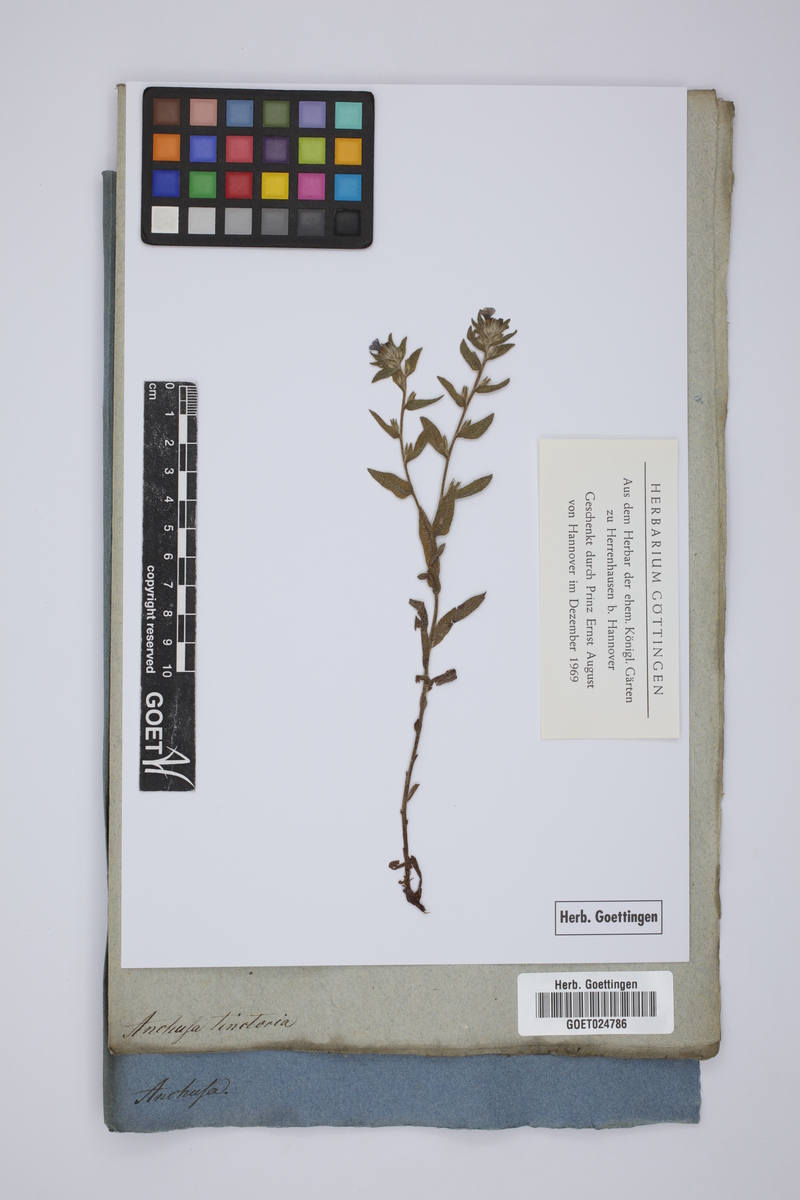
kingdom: Plantae
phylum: Tracheophyta
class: Magnoliopsida
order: Boraginales
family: Boraginaceae
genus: Alkanna
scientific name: Alkanna tinctoria
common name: Dyer's-alkanet
